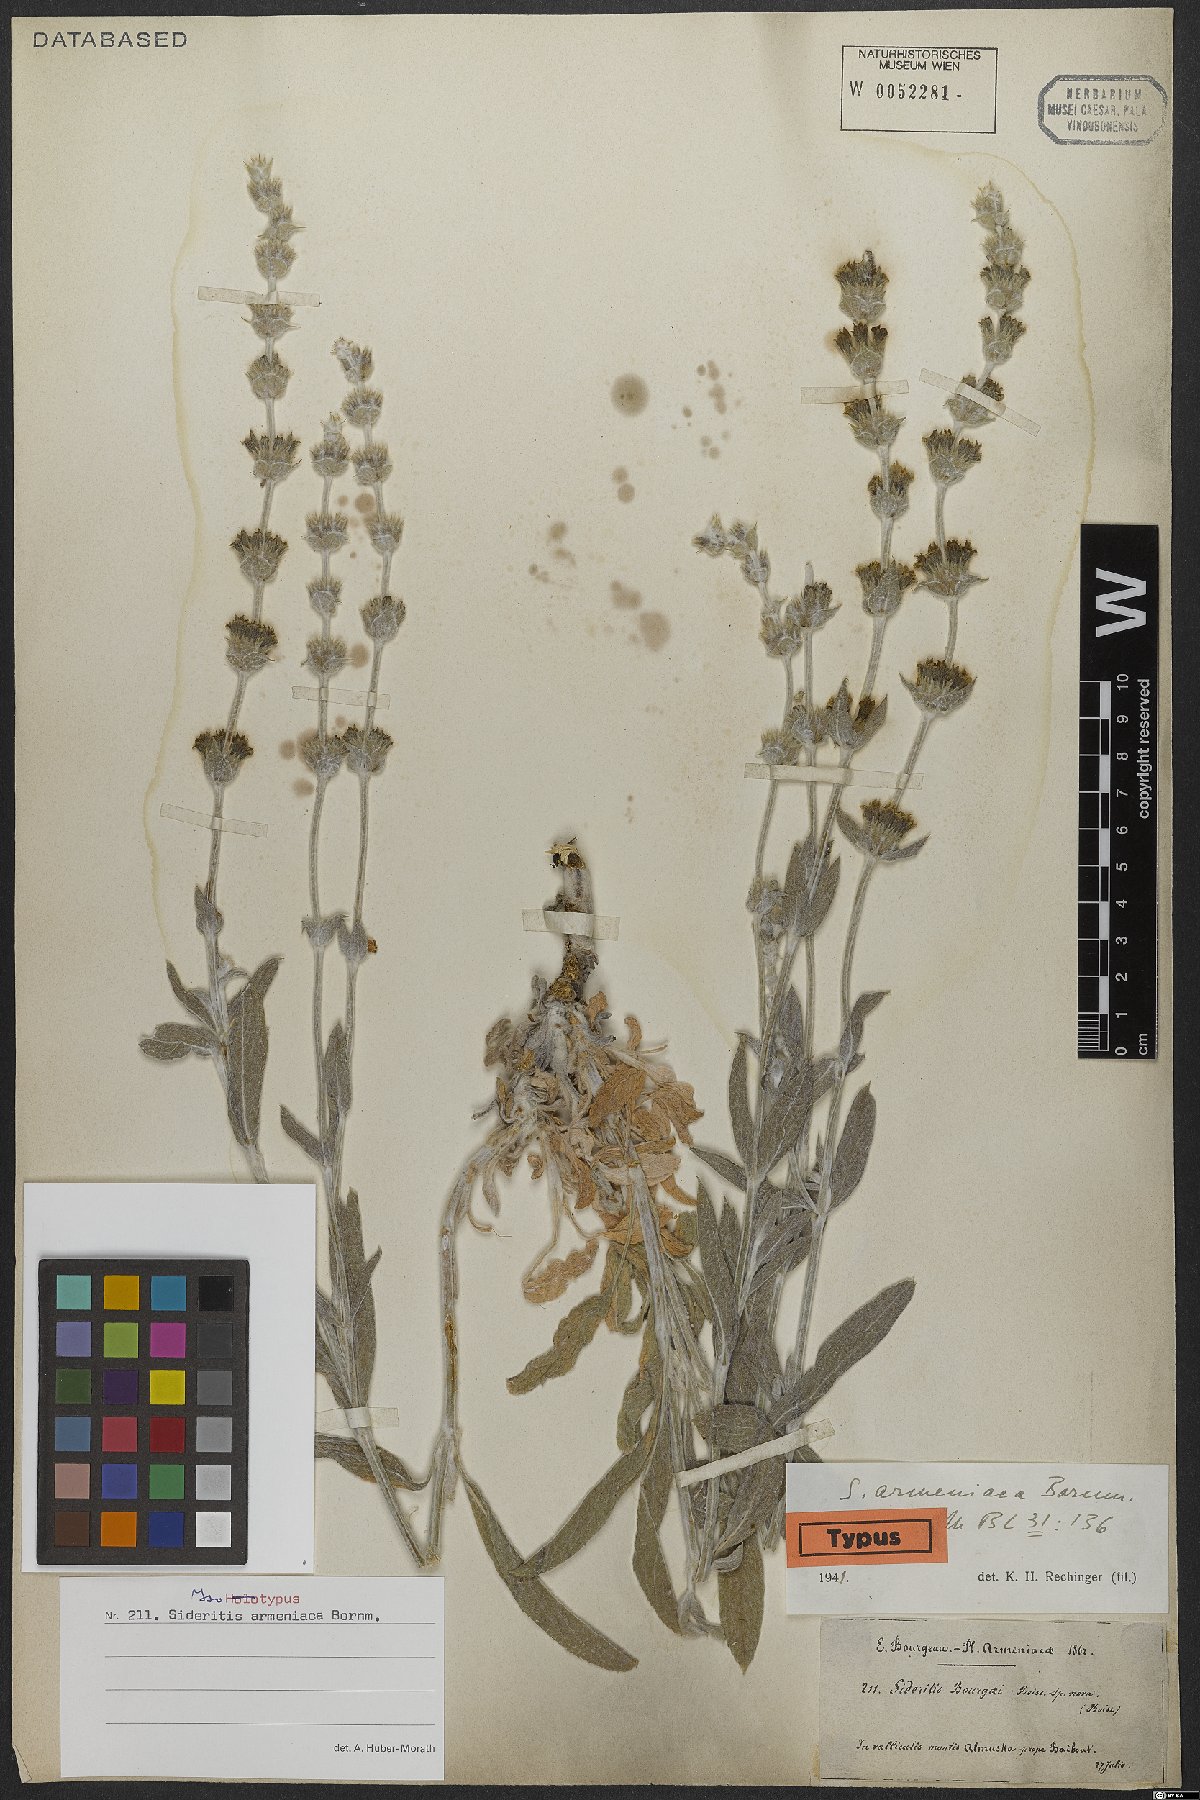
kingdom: Plantae
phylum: Tracheophyta
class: Magnoliopsida
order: Lamiales
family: Lamiaceae
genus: Sideritis
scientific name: Sideritis armeniaca
